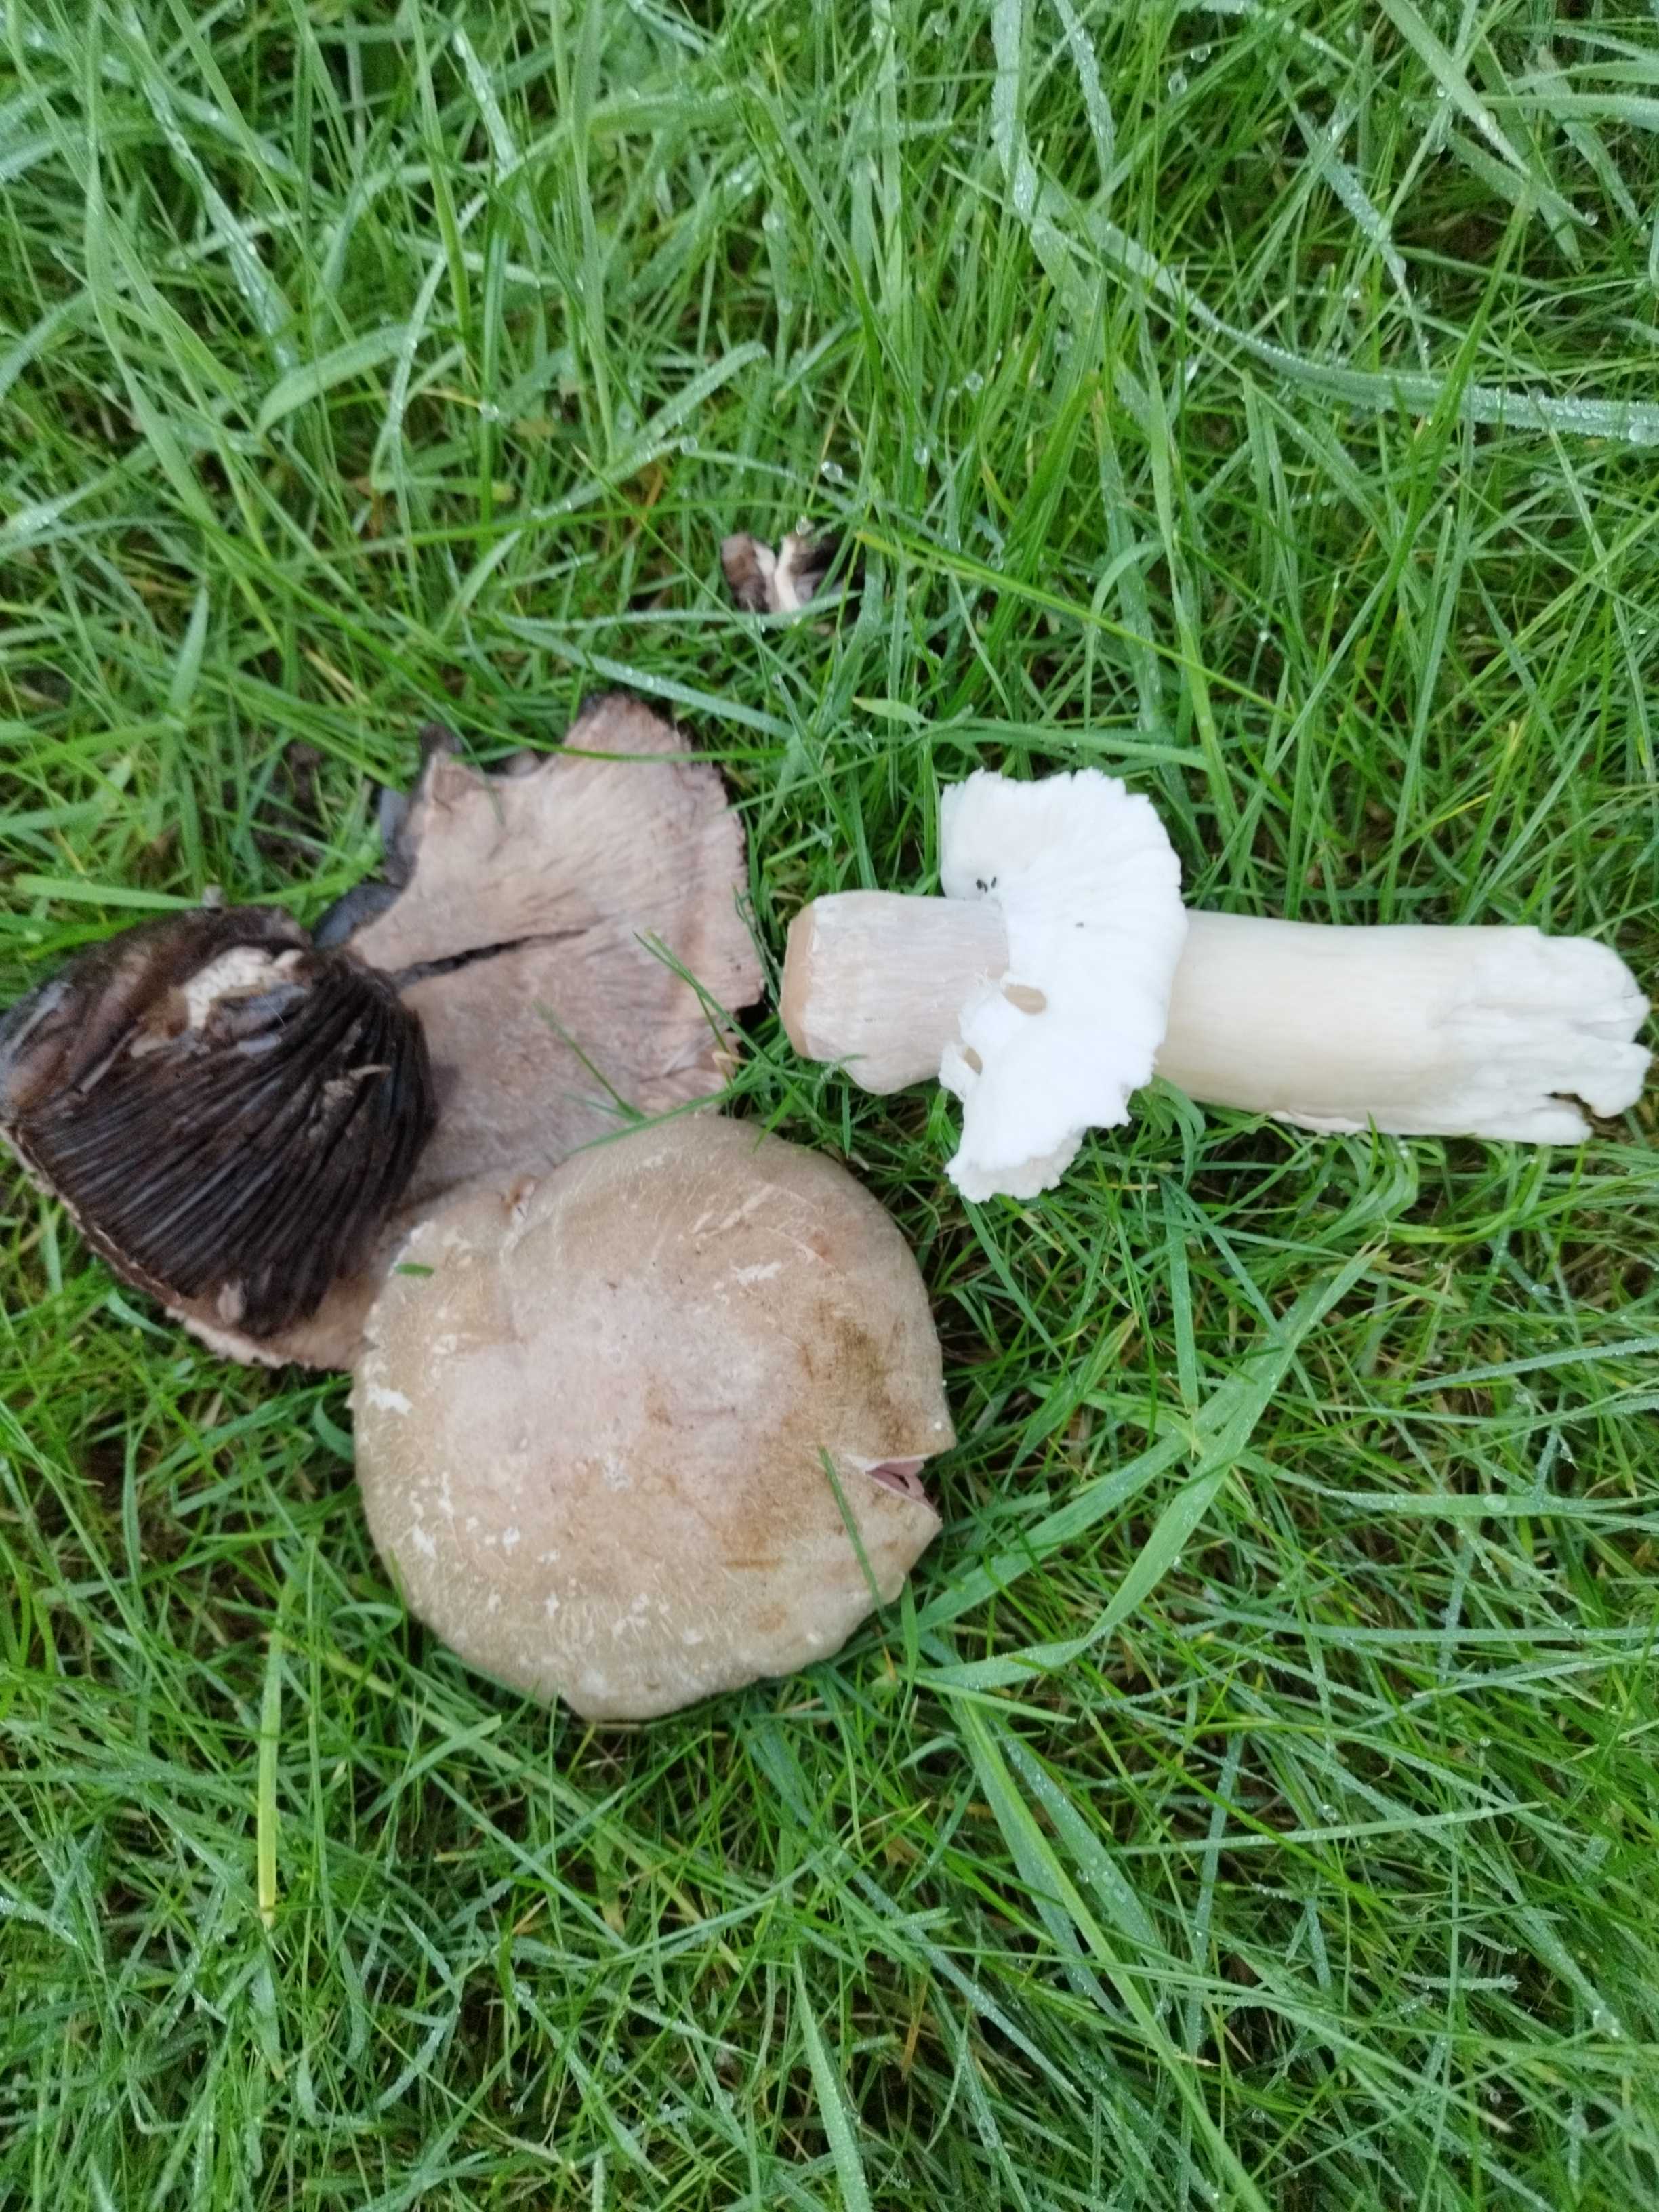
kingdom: Fungi
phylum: Basidiomycota
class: Agaricomycetes
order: Agaricales
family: Agaricaceae
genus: Agaricus
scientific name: Agaricus
